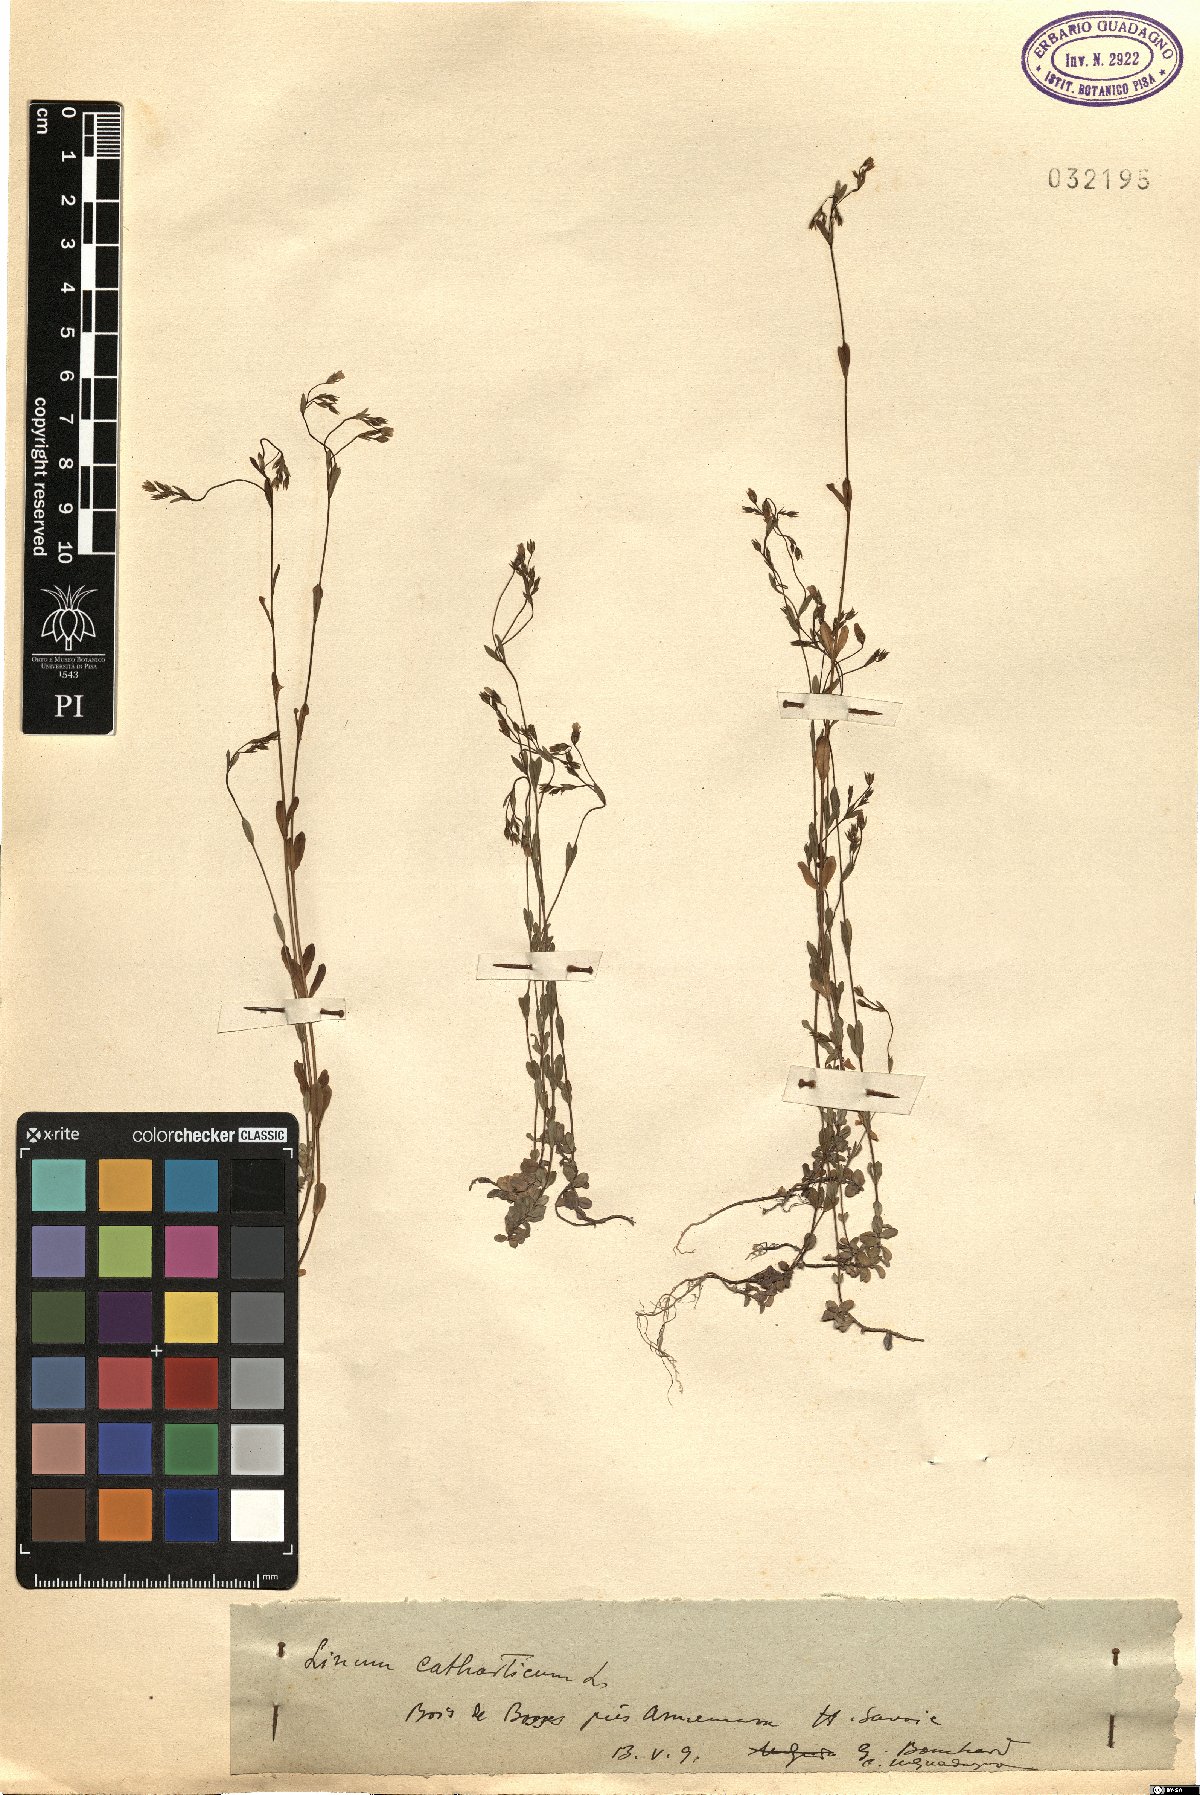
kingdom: Plantae
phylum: Tracheophyta
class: Magnoliopsida
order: Malpighiales
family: Linaceae
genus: Linum
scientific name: Linum catharticum
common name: Fairy flax
